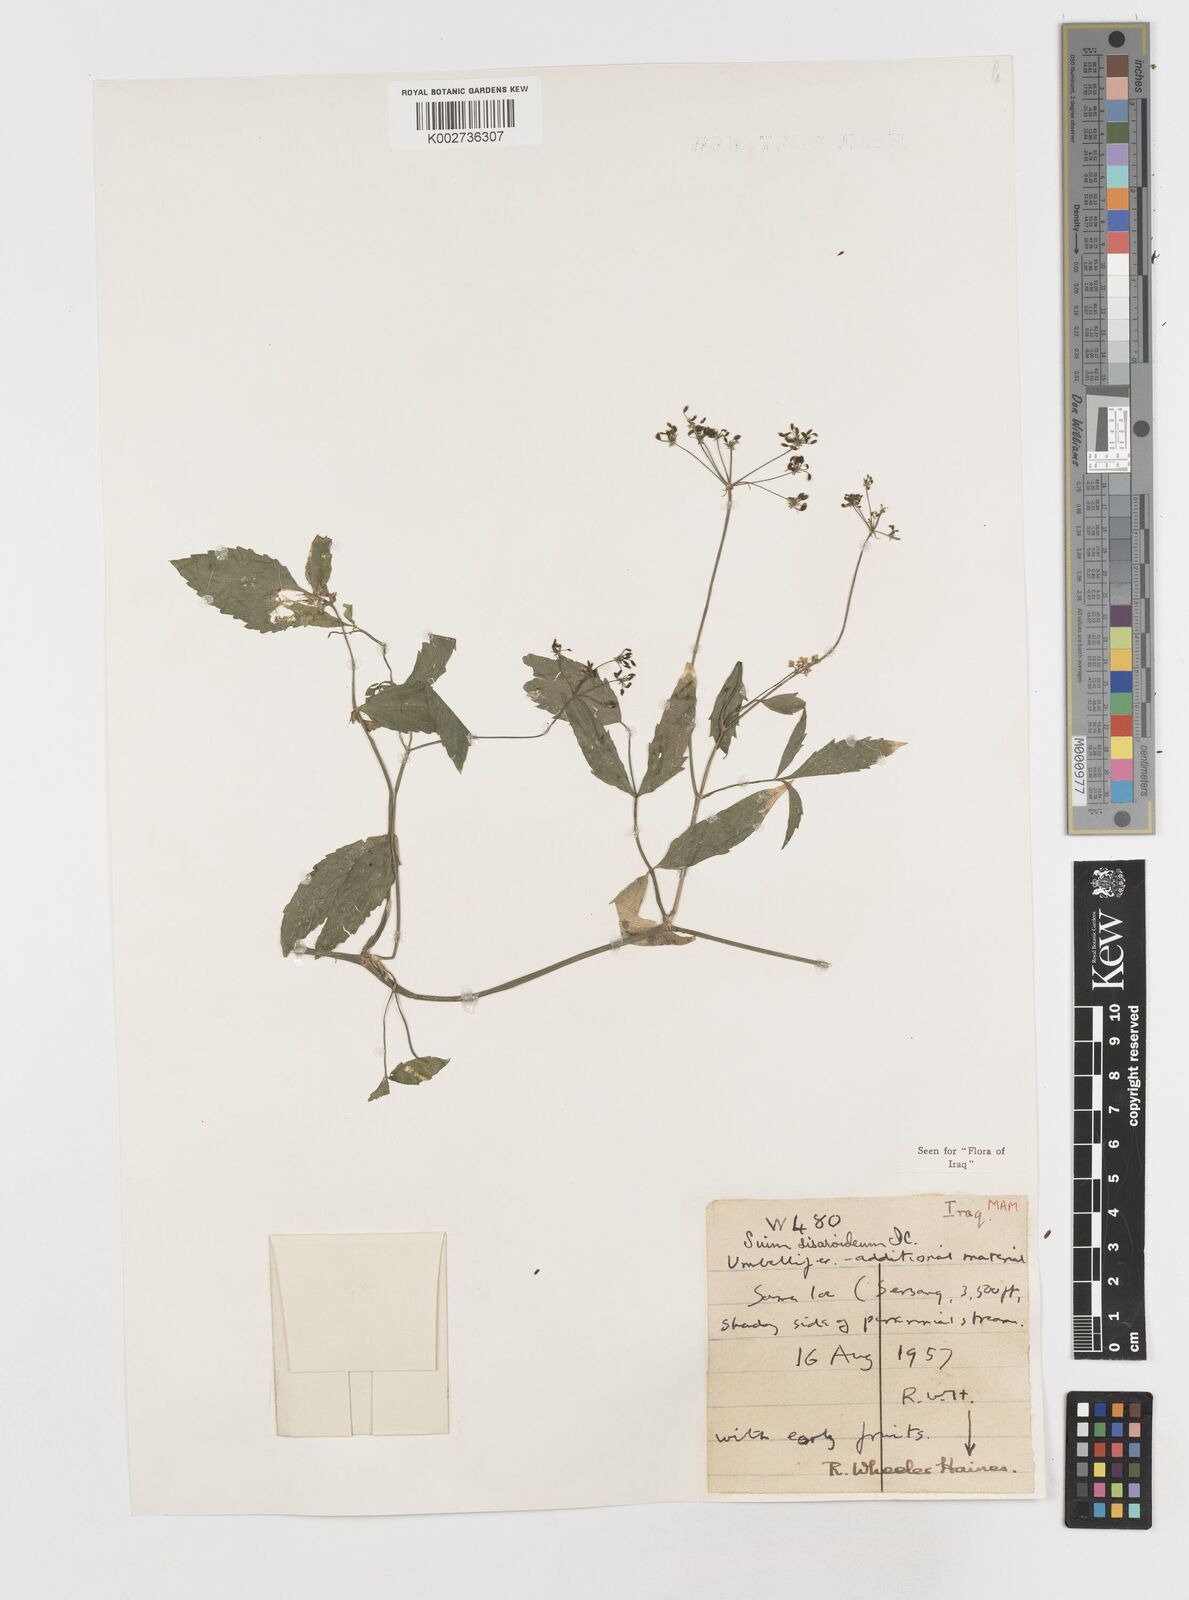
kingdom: Plantae
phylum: Tracheophyta
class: Magnoliopsida
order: Apiales
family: Apiaceae
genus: Sium
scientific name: Sium sisarum
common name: Skirret
